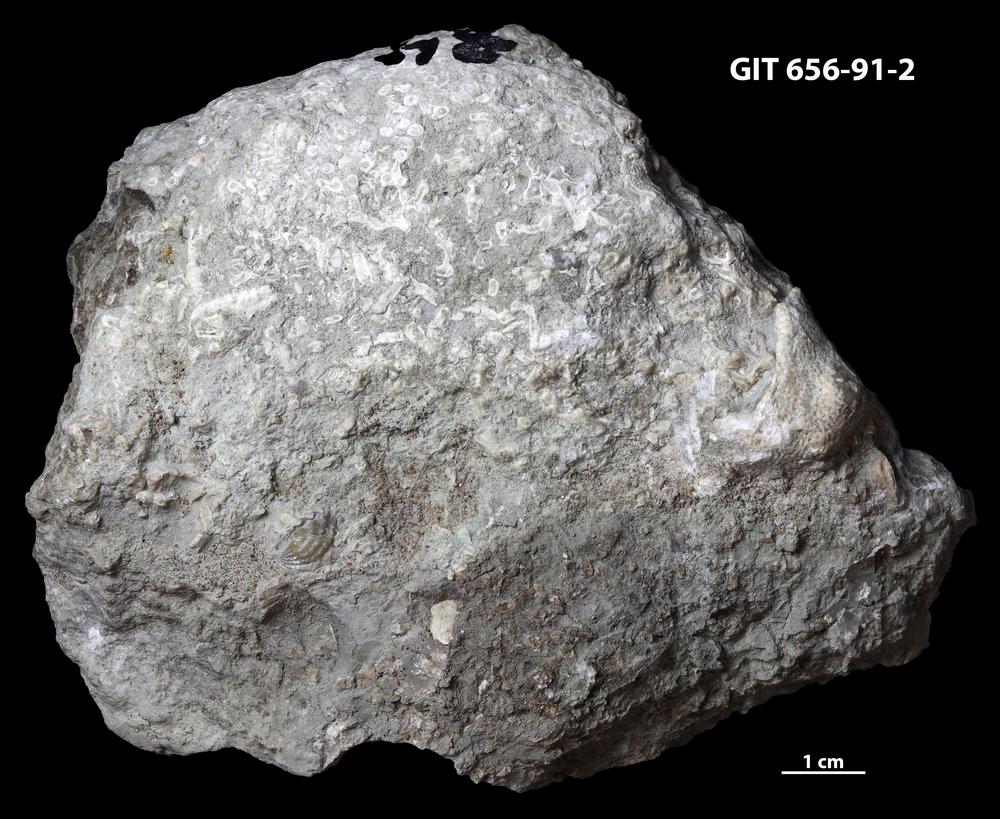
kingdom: Animalia
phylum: Cnidaria
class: Anthozoa
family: Syringoporidae
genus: Syringopora
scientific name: Syringopora
